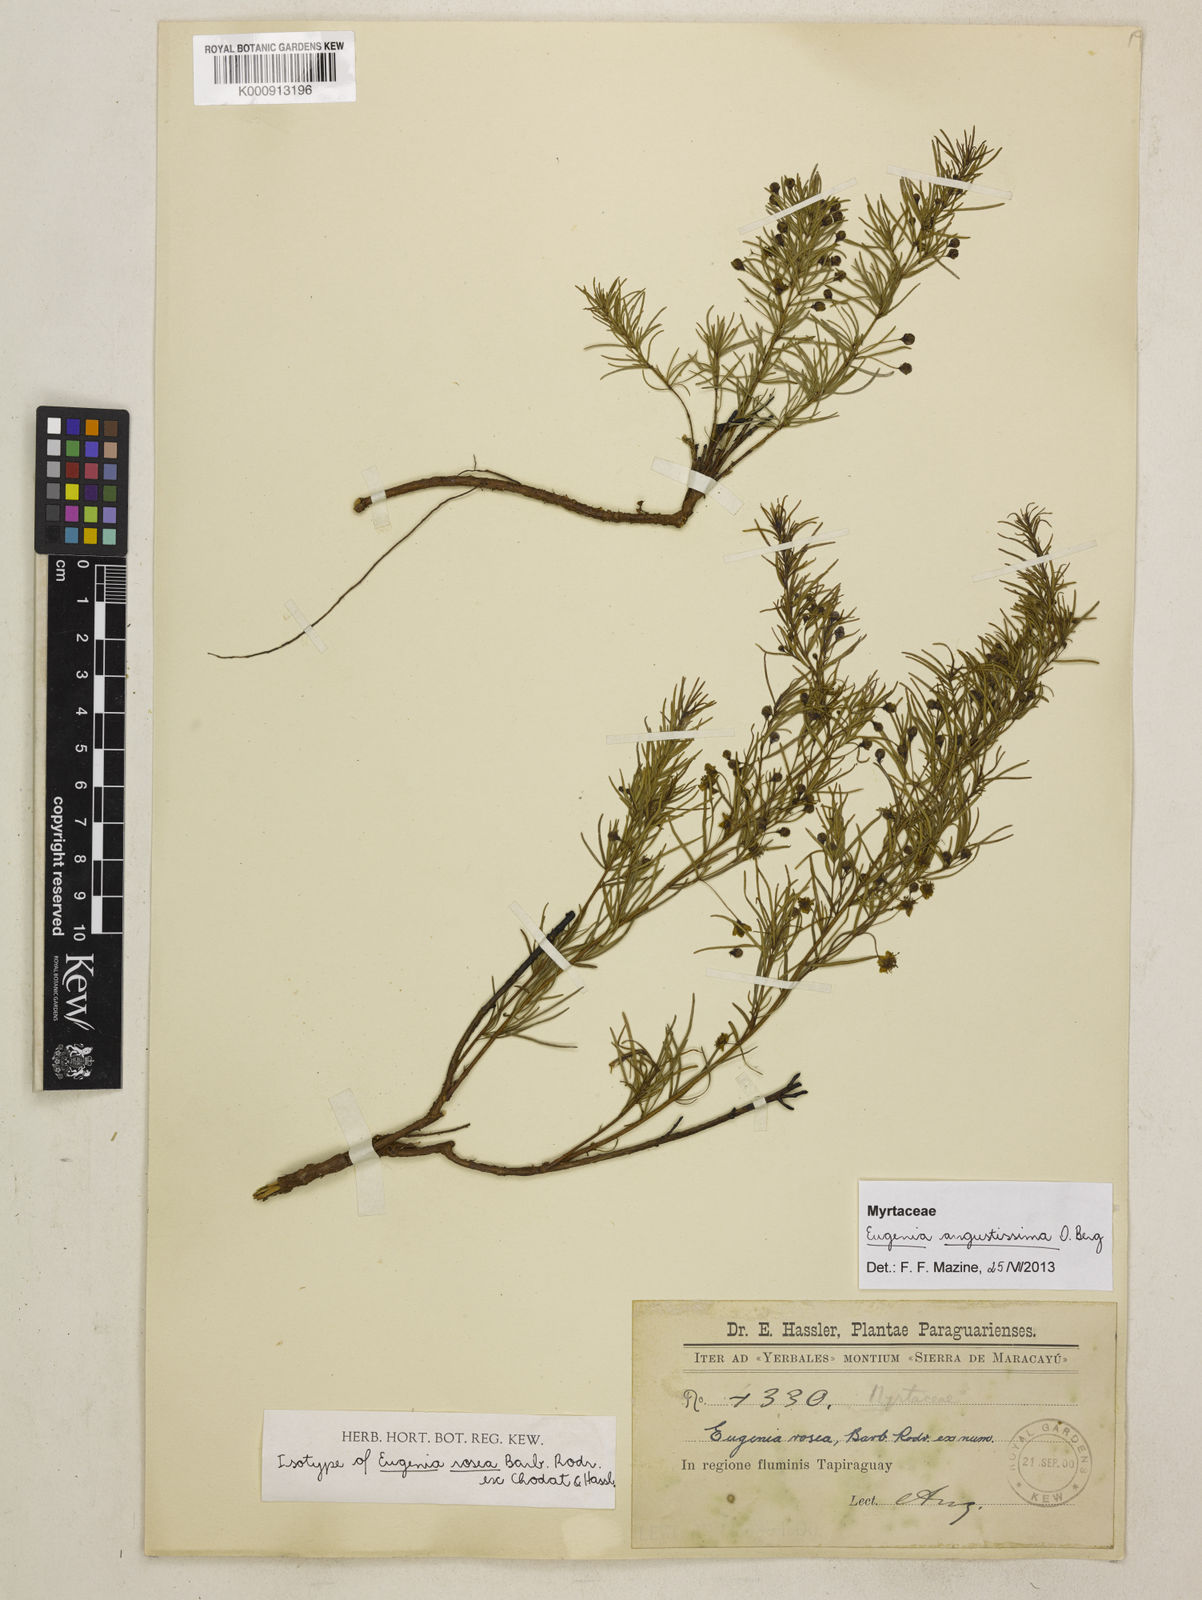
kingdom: Plantae
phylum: Tracheophyta
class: Magnoliopsida
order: Myrtales
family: Myrtaceae
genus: Eugenia
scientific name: Eugenia angustissima
